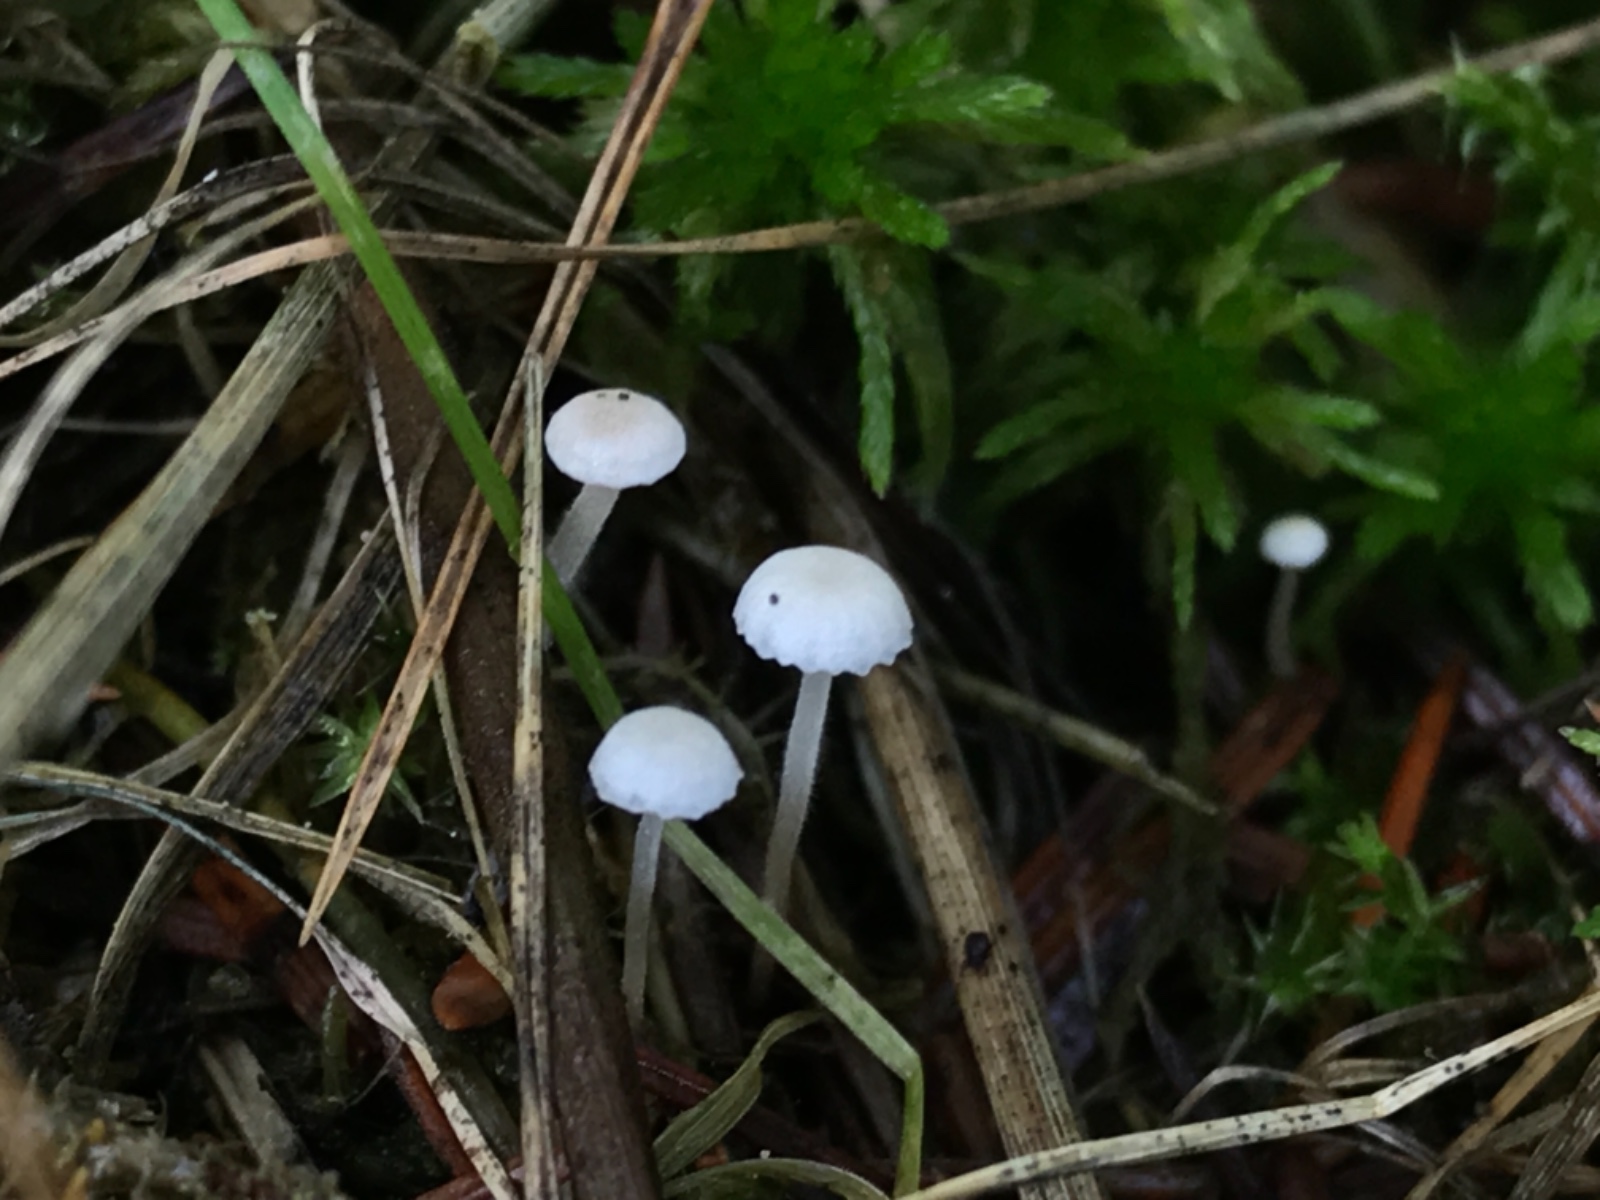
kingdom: Fungi
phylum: Basidiomycota
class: Agaricomycetes
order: Agaricales
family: Tricholomataceae
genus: Collybia
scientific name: Collybia cookei
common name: gulknoldet lighat
